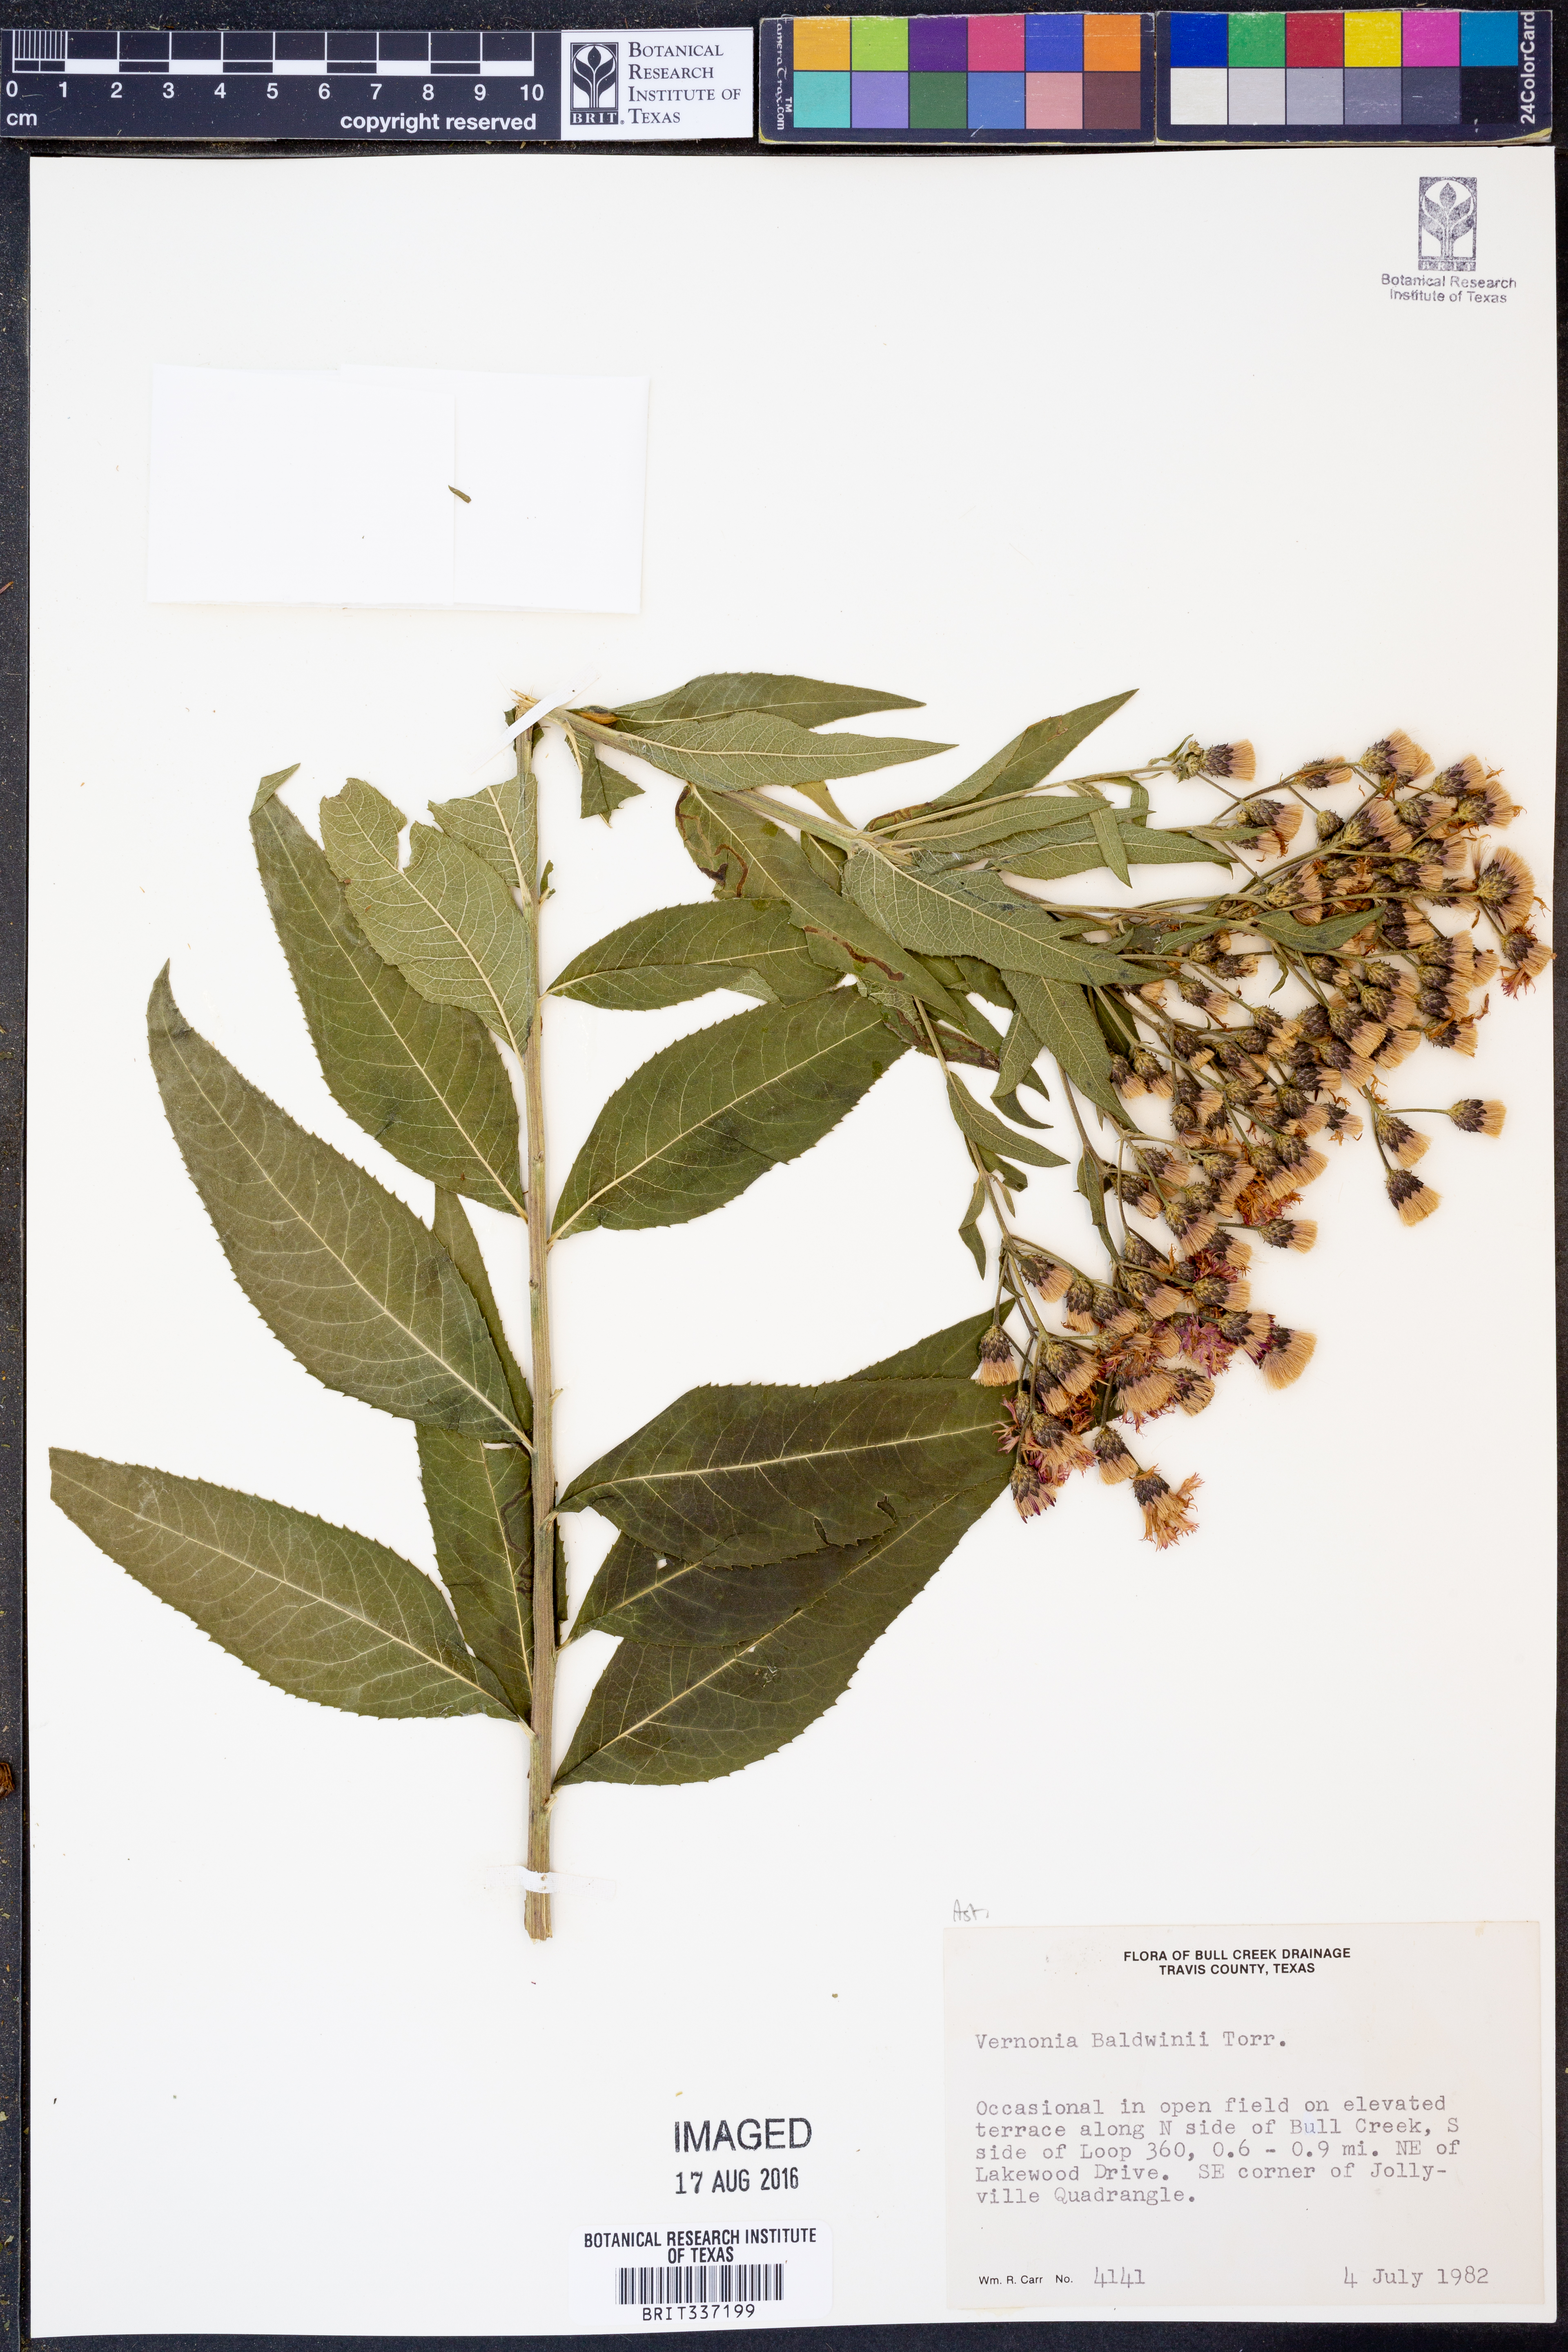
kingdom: Plantae
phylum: Tracheophyta
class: Magnoliopsida
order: Asterales
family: Asteraceae
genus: Vernonia
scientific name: Vernonia baldwinii
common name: Western ironweed
